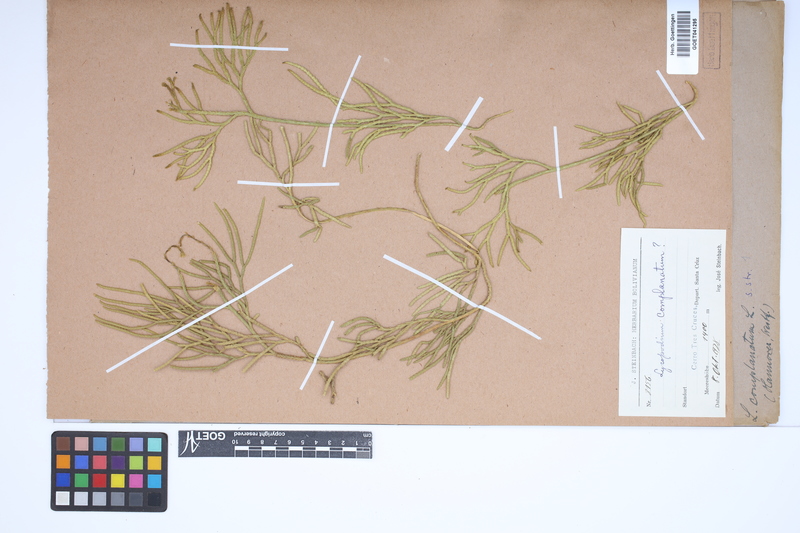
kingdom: Plantae
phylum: Tracheophyta
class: Lycopodiopsida
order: Lycopodiales
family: Lycopodiaceae
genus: Diphasiastrum
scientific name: Diphasiastrum zeilleri
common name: Zeiller's clubmoss
